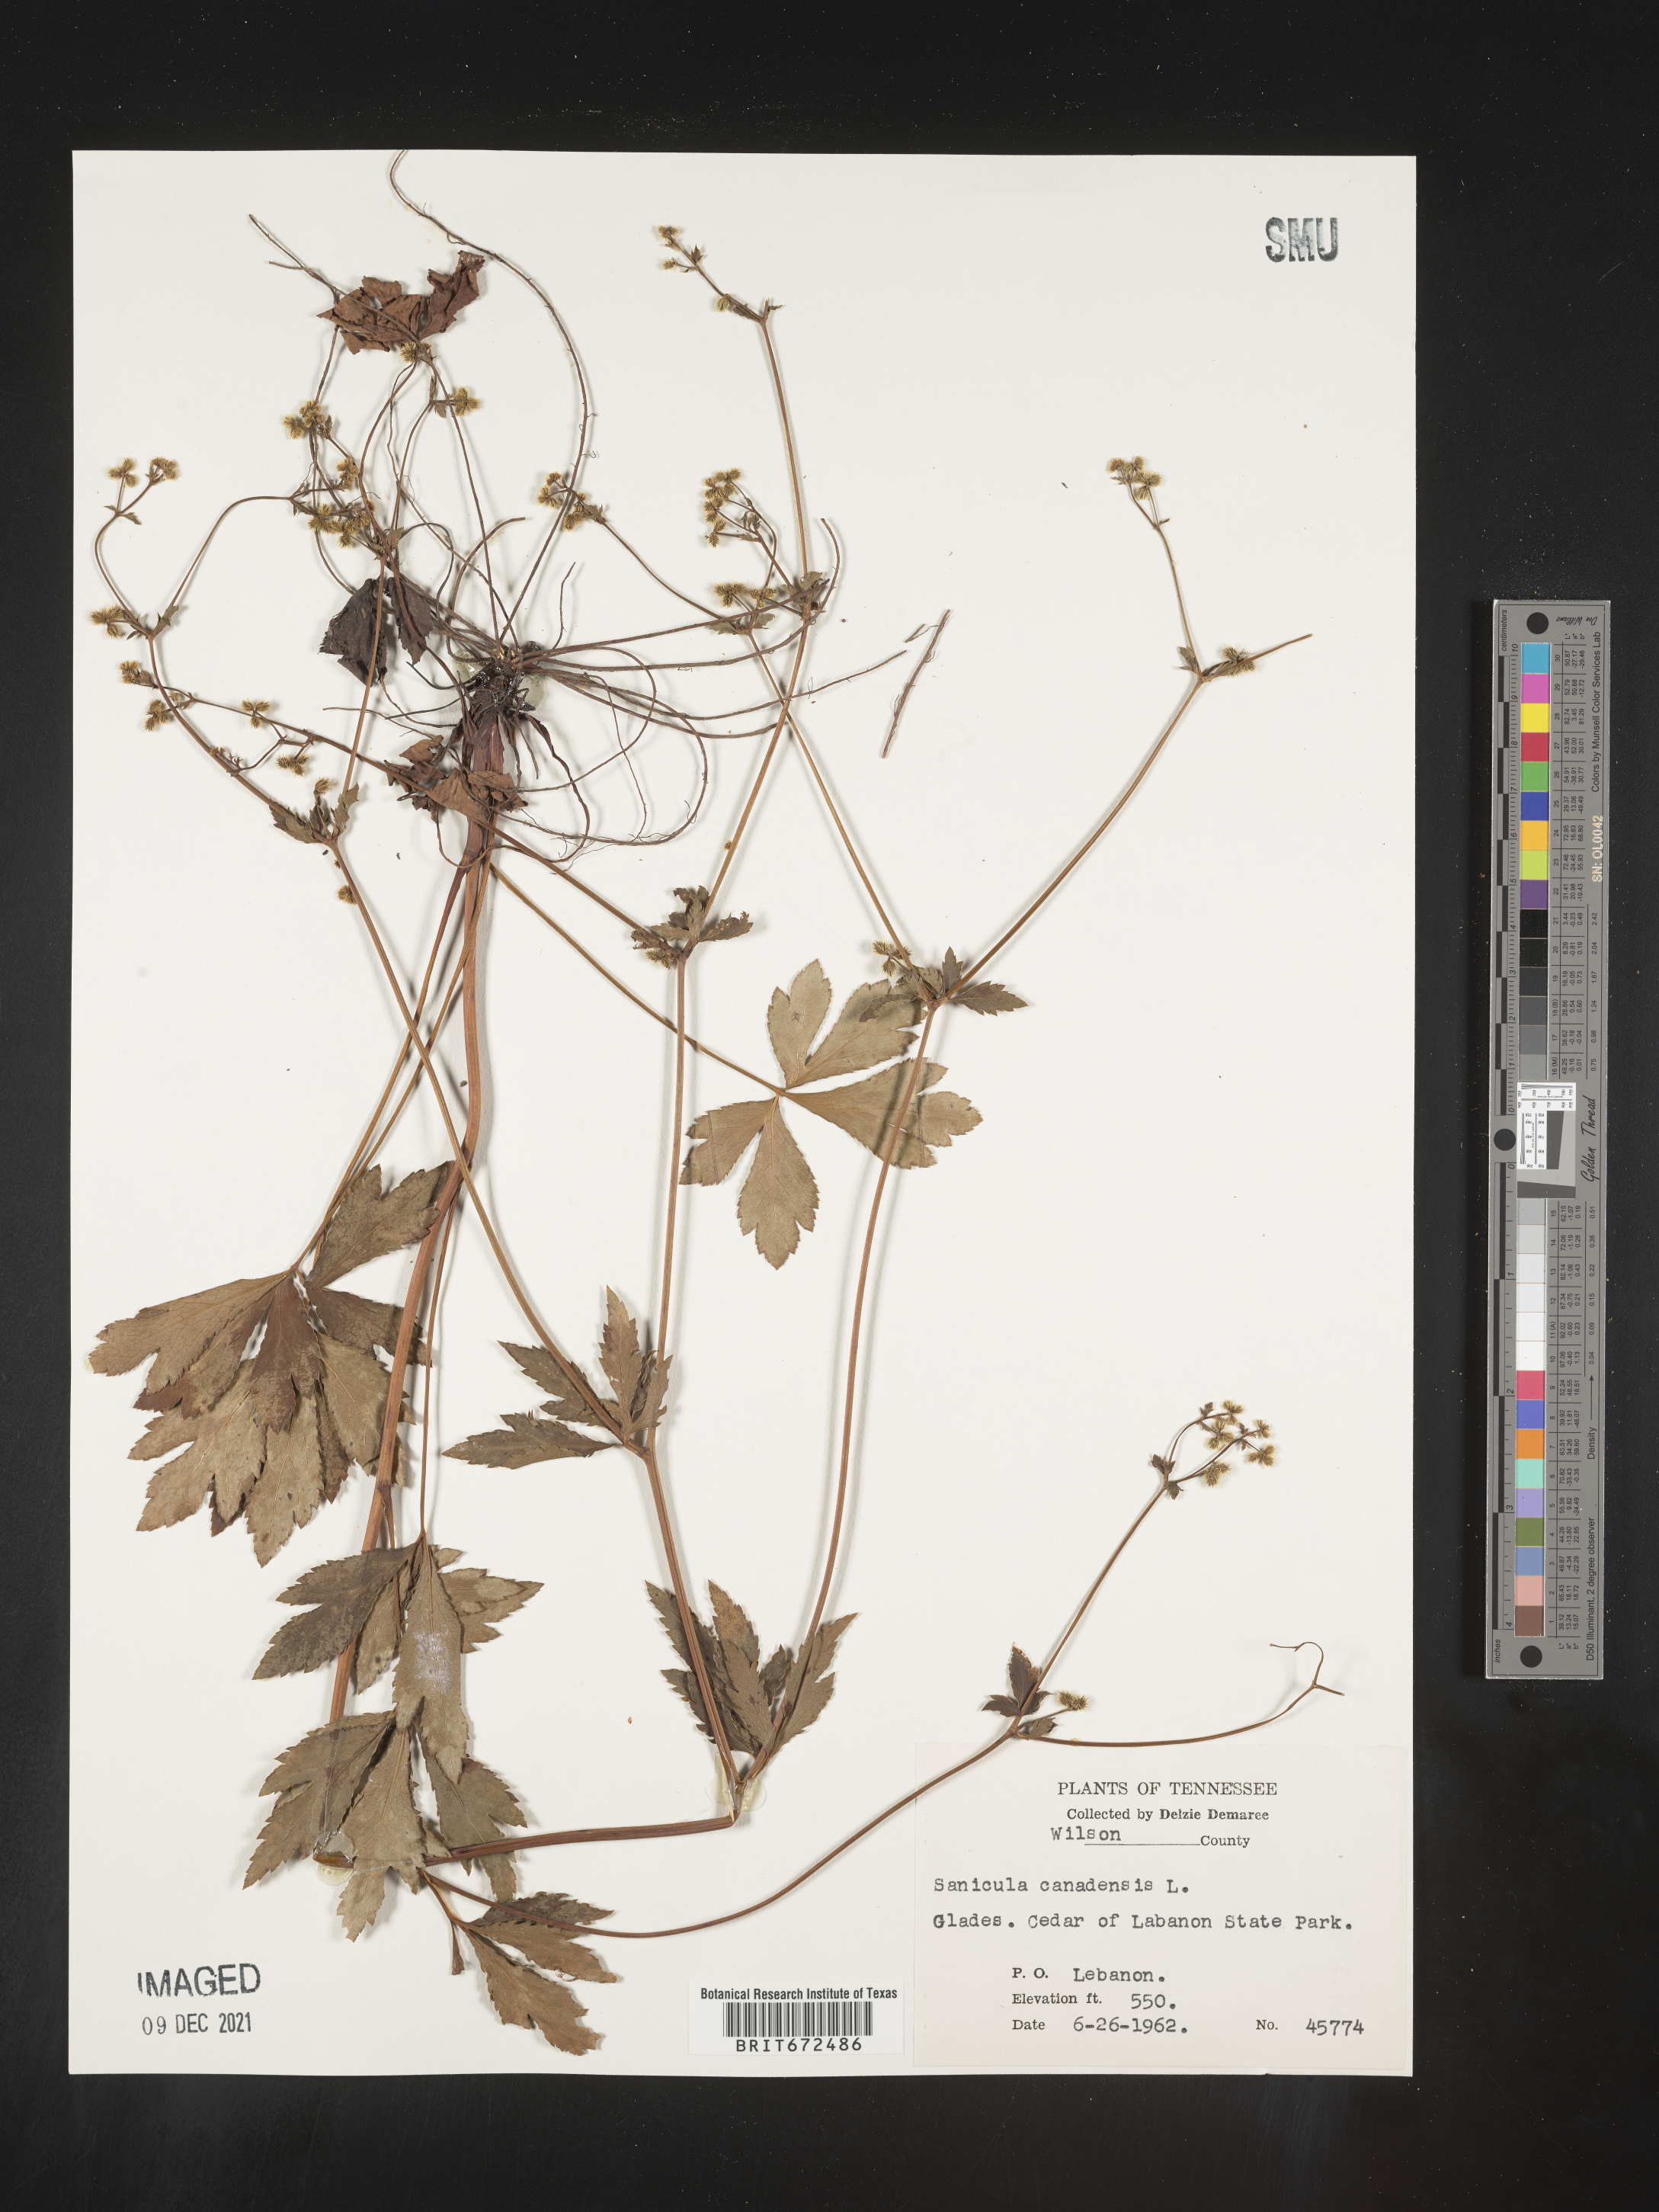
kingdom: Plantae
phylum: Tracheophyta
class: Magnoliopsida
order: Apiales
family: Apiaceae
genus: Sanicula
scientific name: Sanicula canadensis
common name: Canada sanicle
